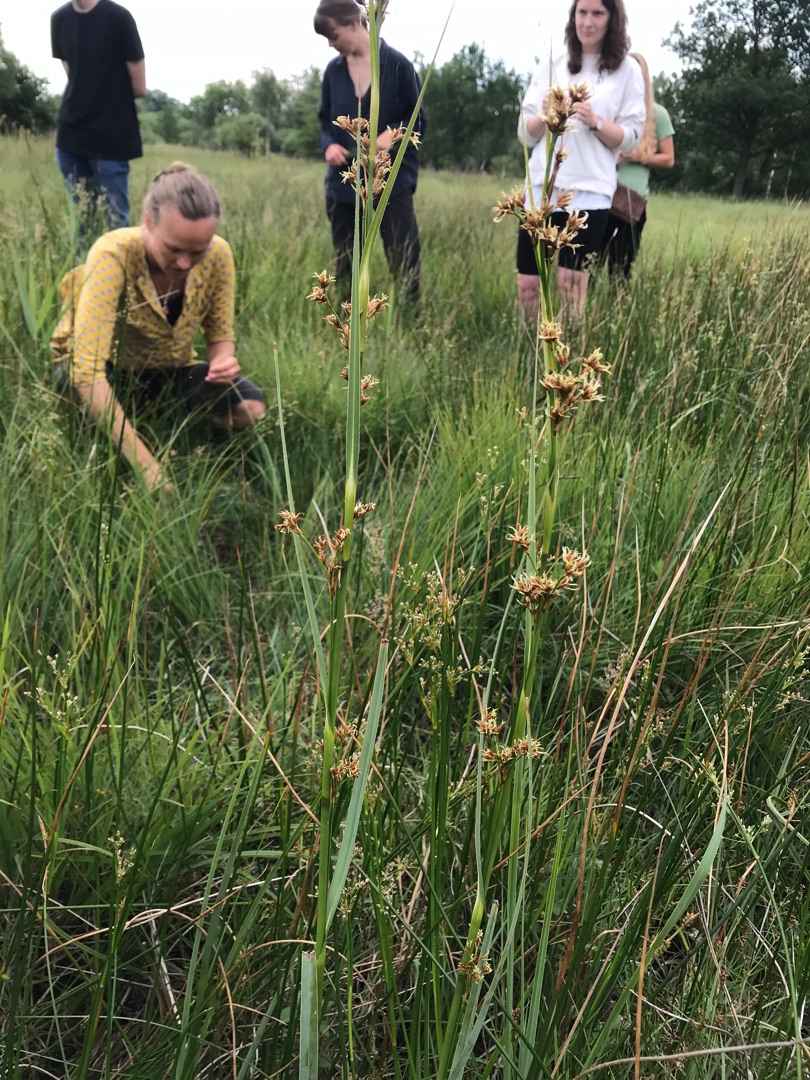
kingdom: Plantae
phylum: Tracheophyta
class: Liliopsida
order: Poales
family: Cyperaceae
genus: Cladium
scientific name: Cladium mariscus
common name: Hvas avneknippe
